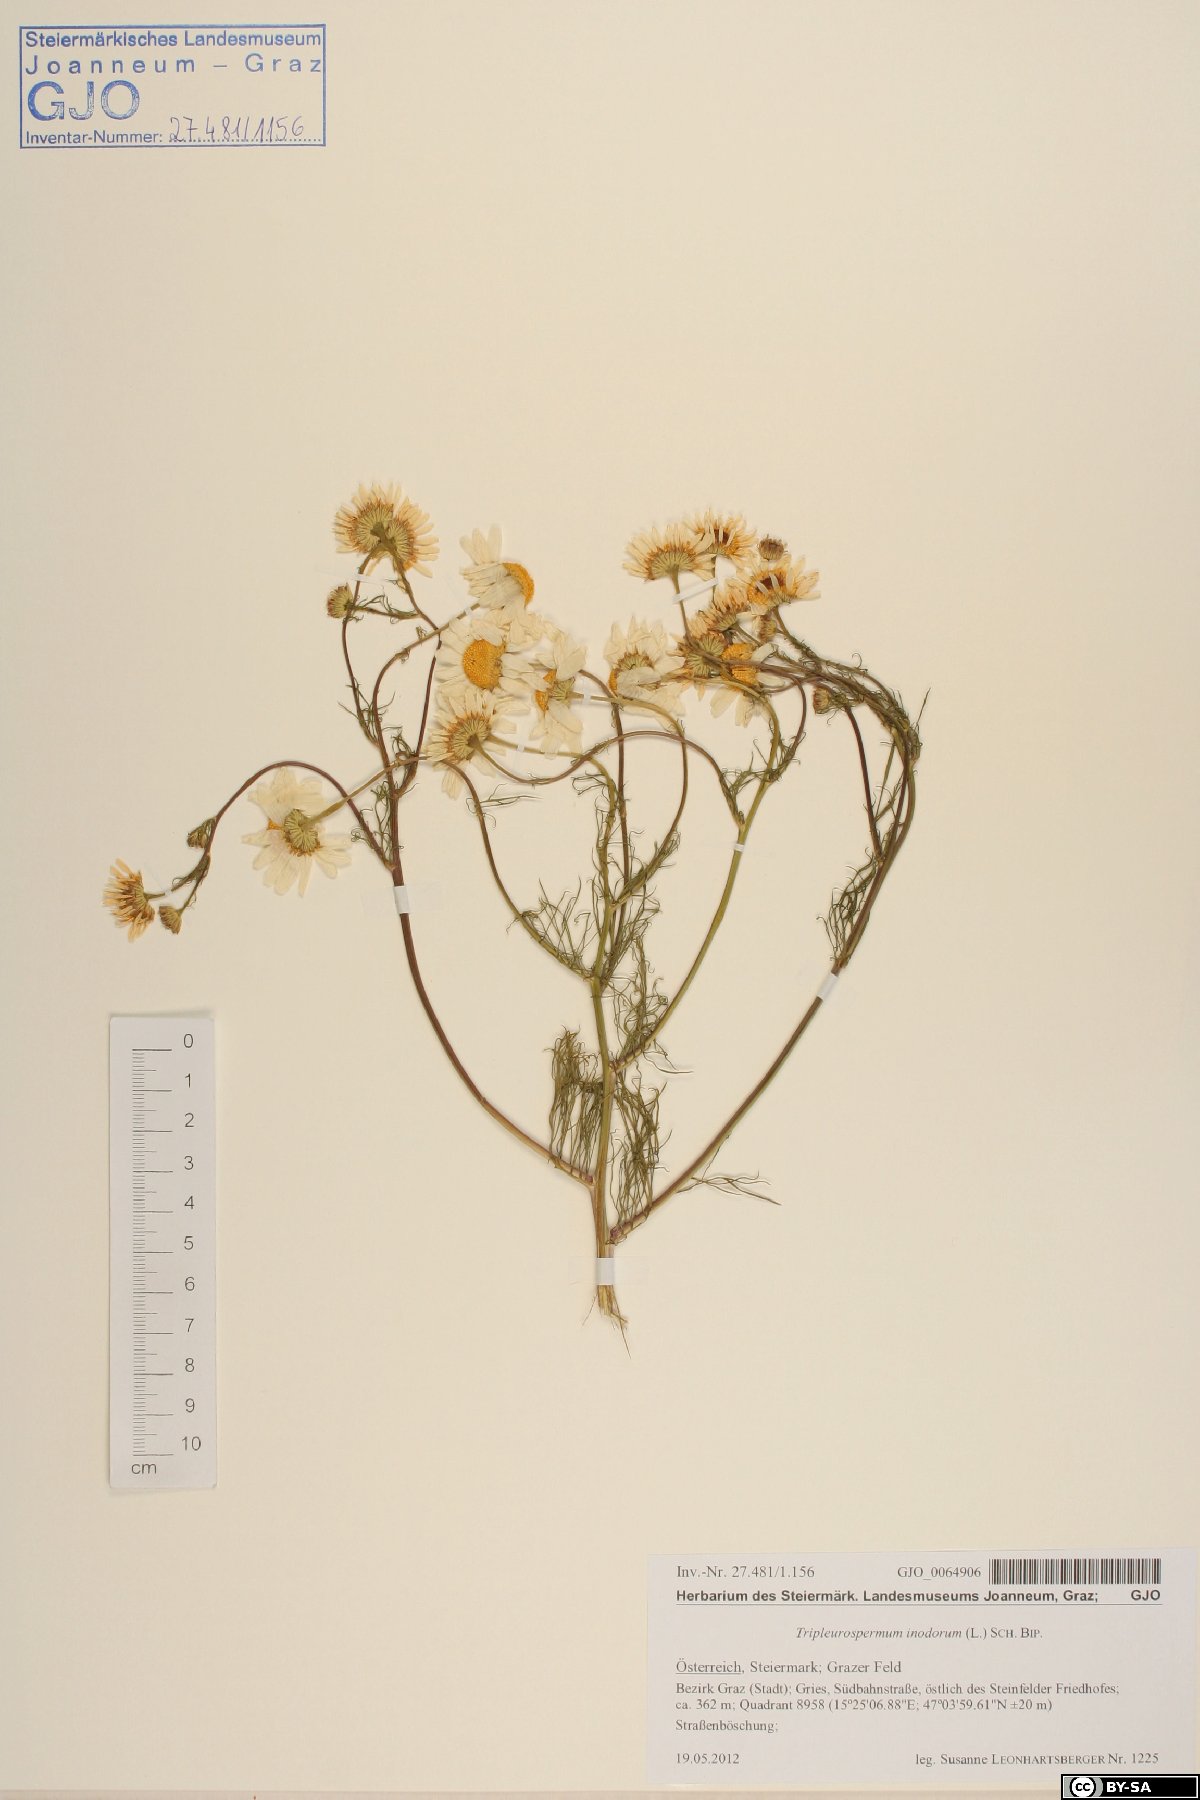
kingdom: Plantae
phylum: Tracheophyta
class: Magnoliopsida
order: Asterales
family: Asteraceae
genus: Tripleurospermum
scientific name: Tripleurospermum inodorum
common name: Scentless mayweed
